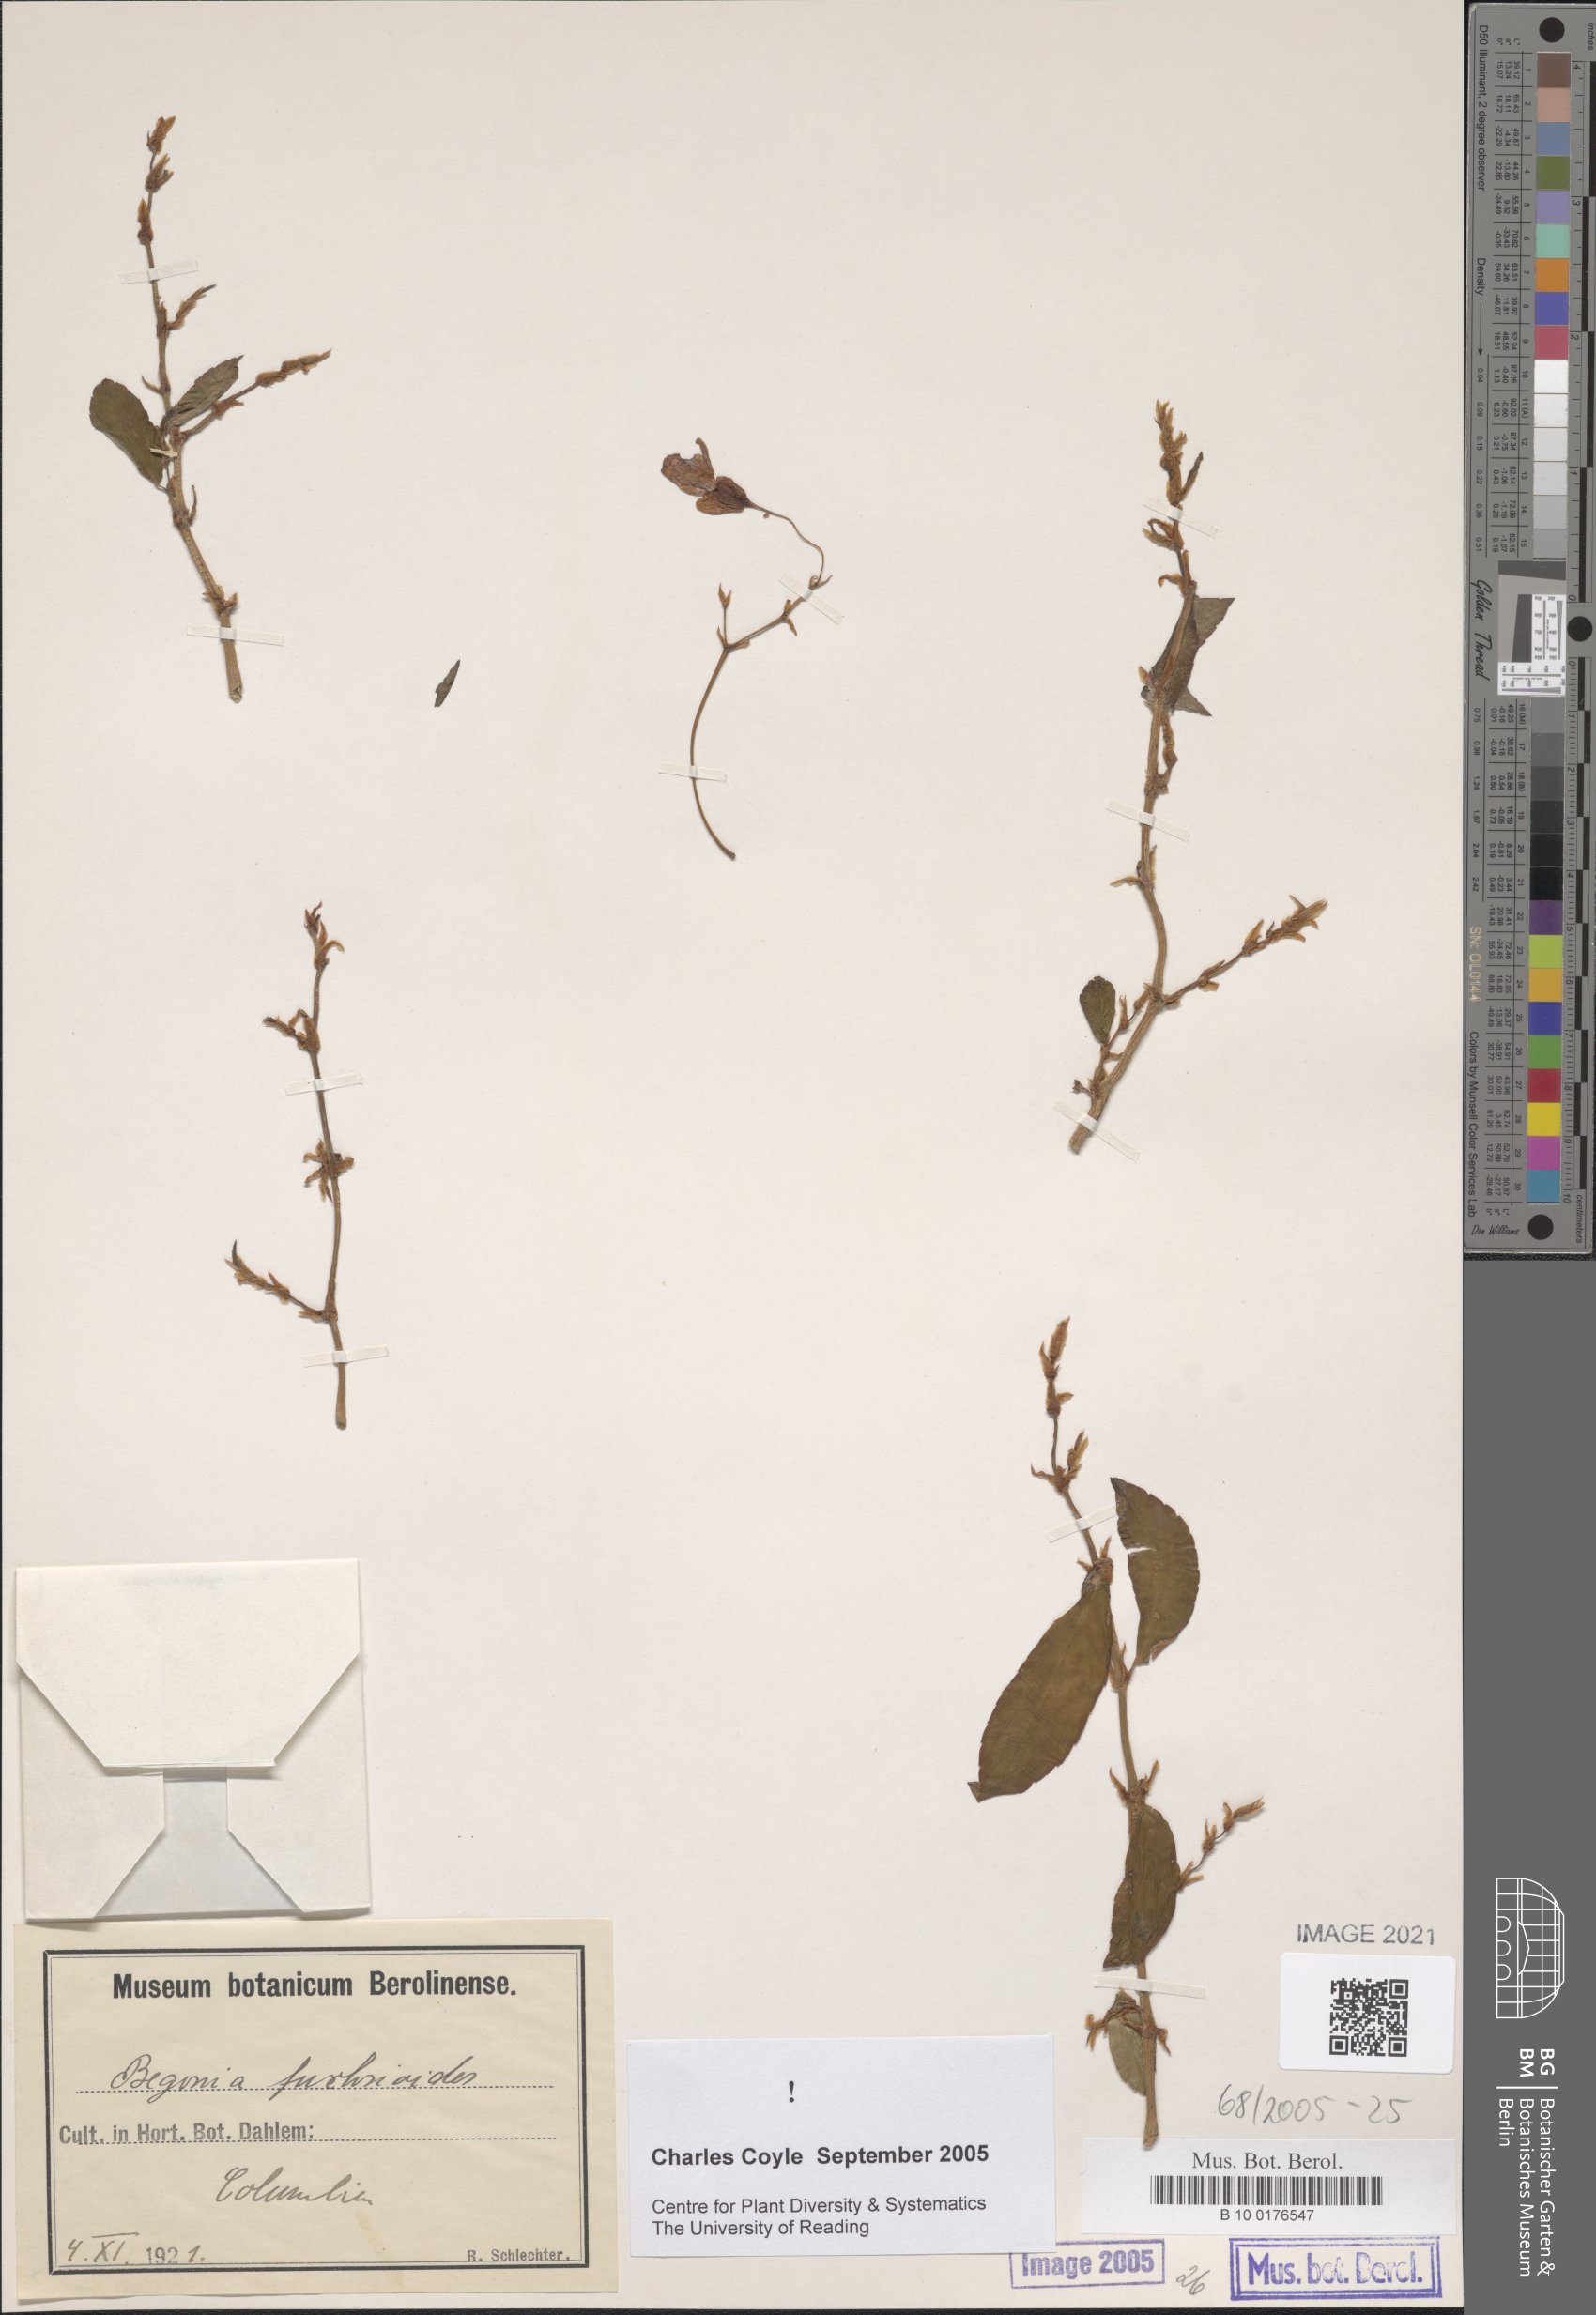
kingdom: Plantae
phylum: Tracheophyta
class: Magnoliopsida
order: Cucurbitales
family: Begoniaceae
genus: Begonia
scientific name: Begonia fuchsioides
